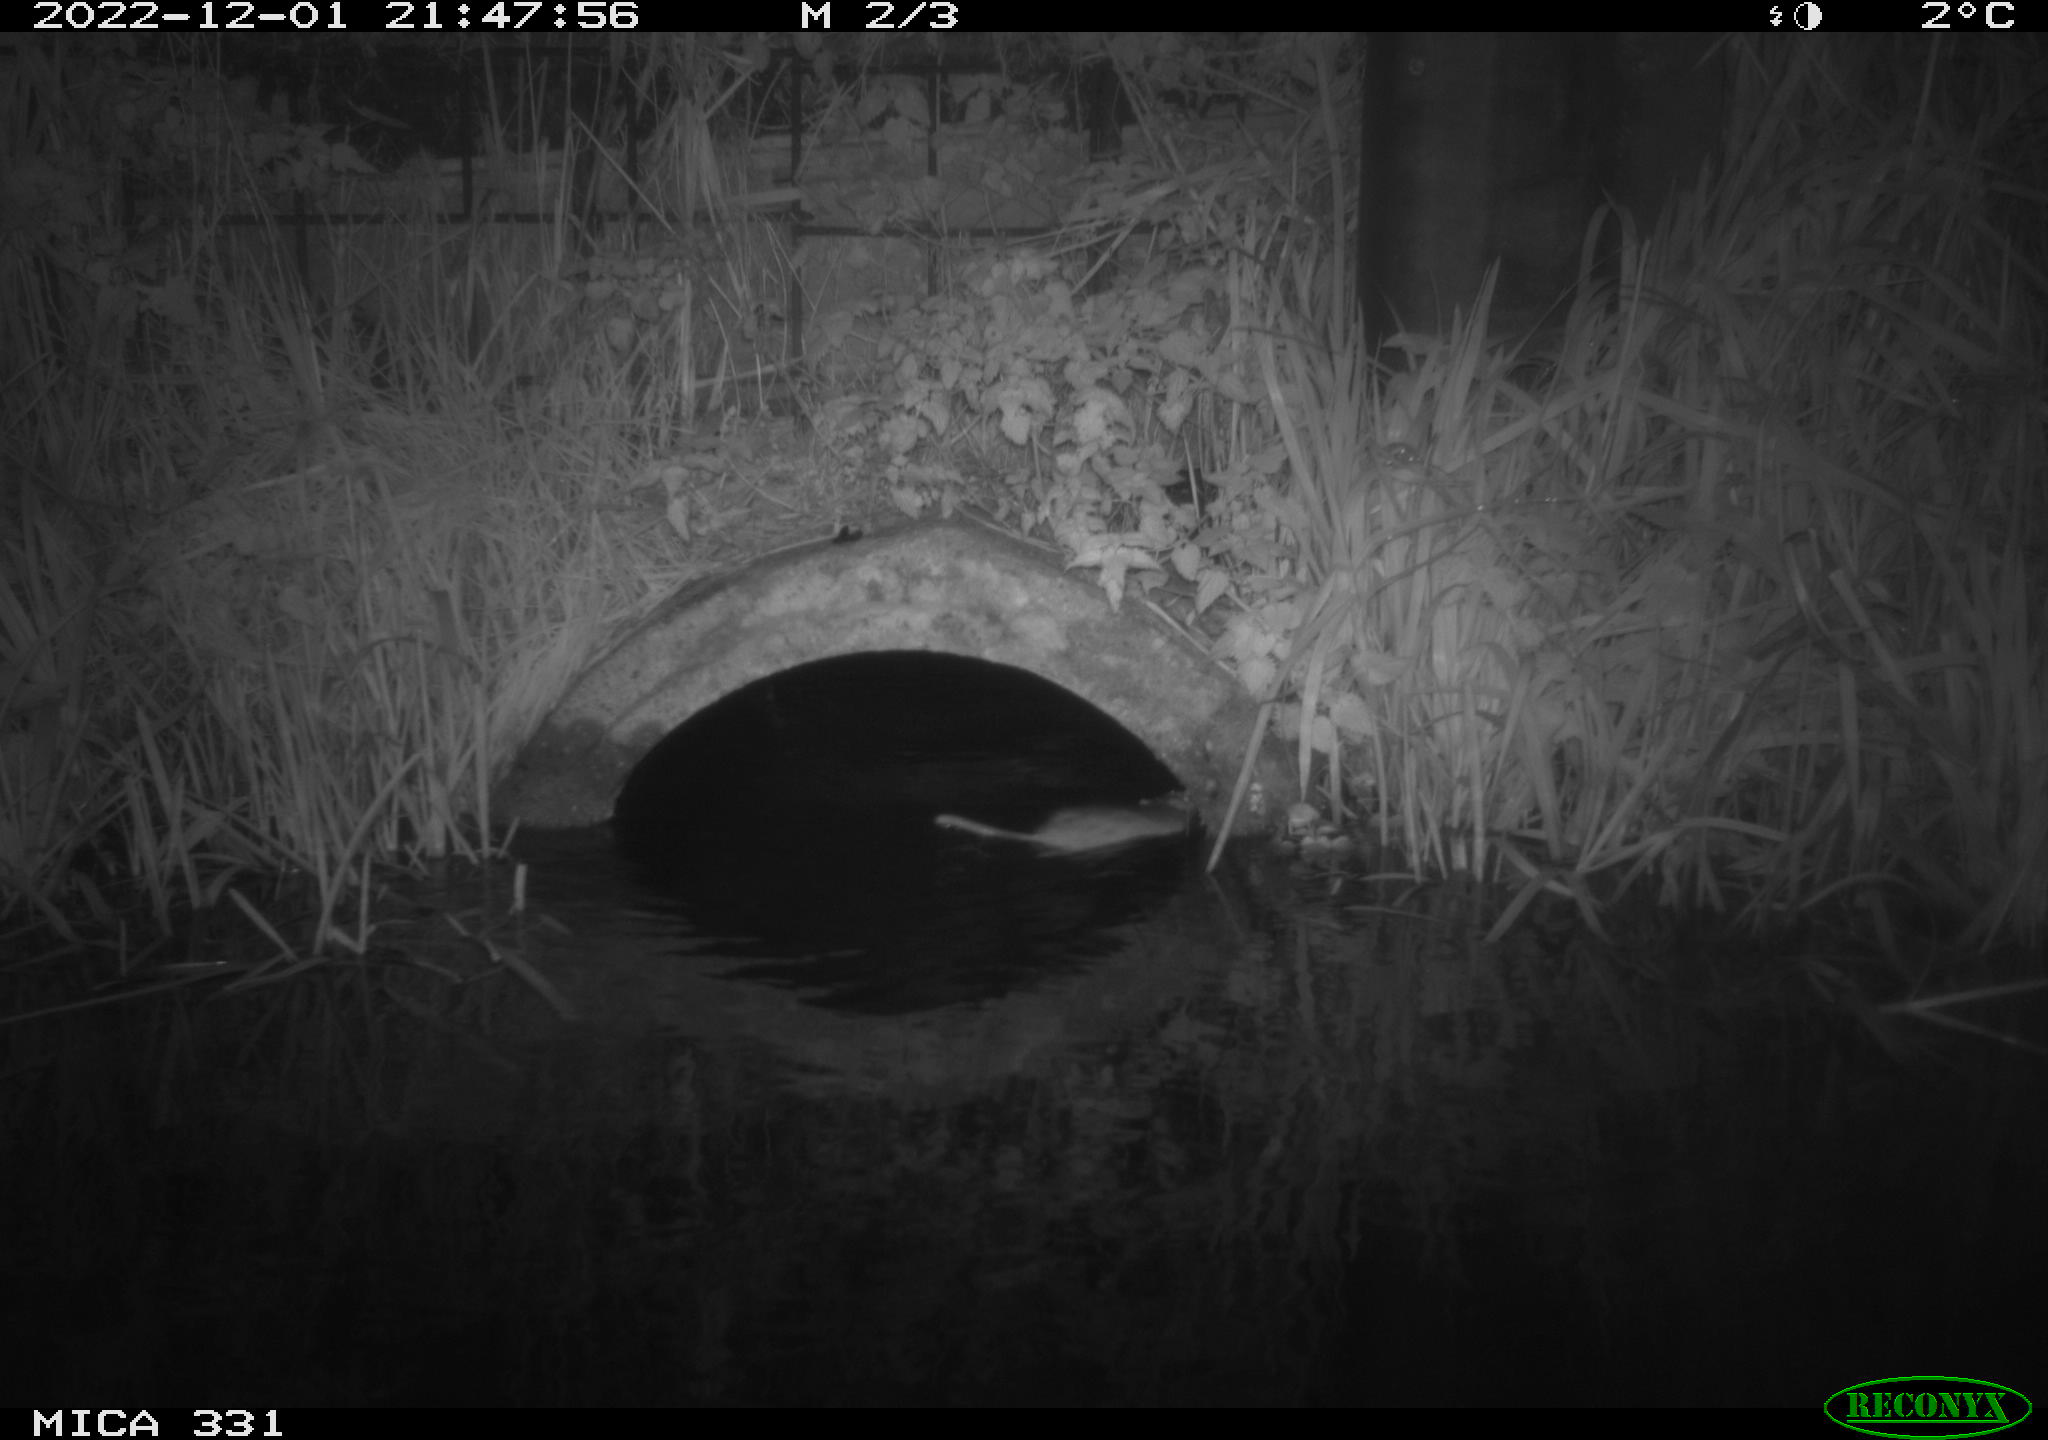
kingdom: Animalia
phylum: Chordata
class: Mammalia
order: Rodentia
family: Muridae
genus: Rattus
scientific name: Rattus norvegicus
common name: Brown rat
